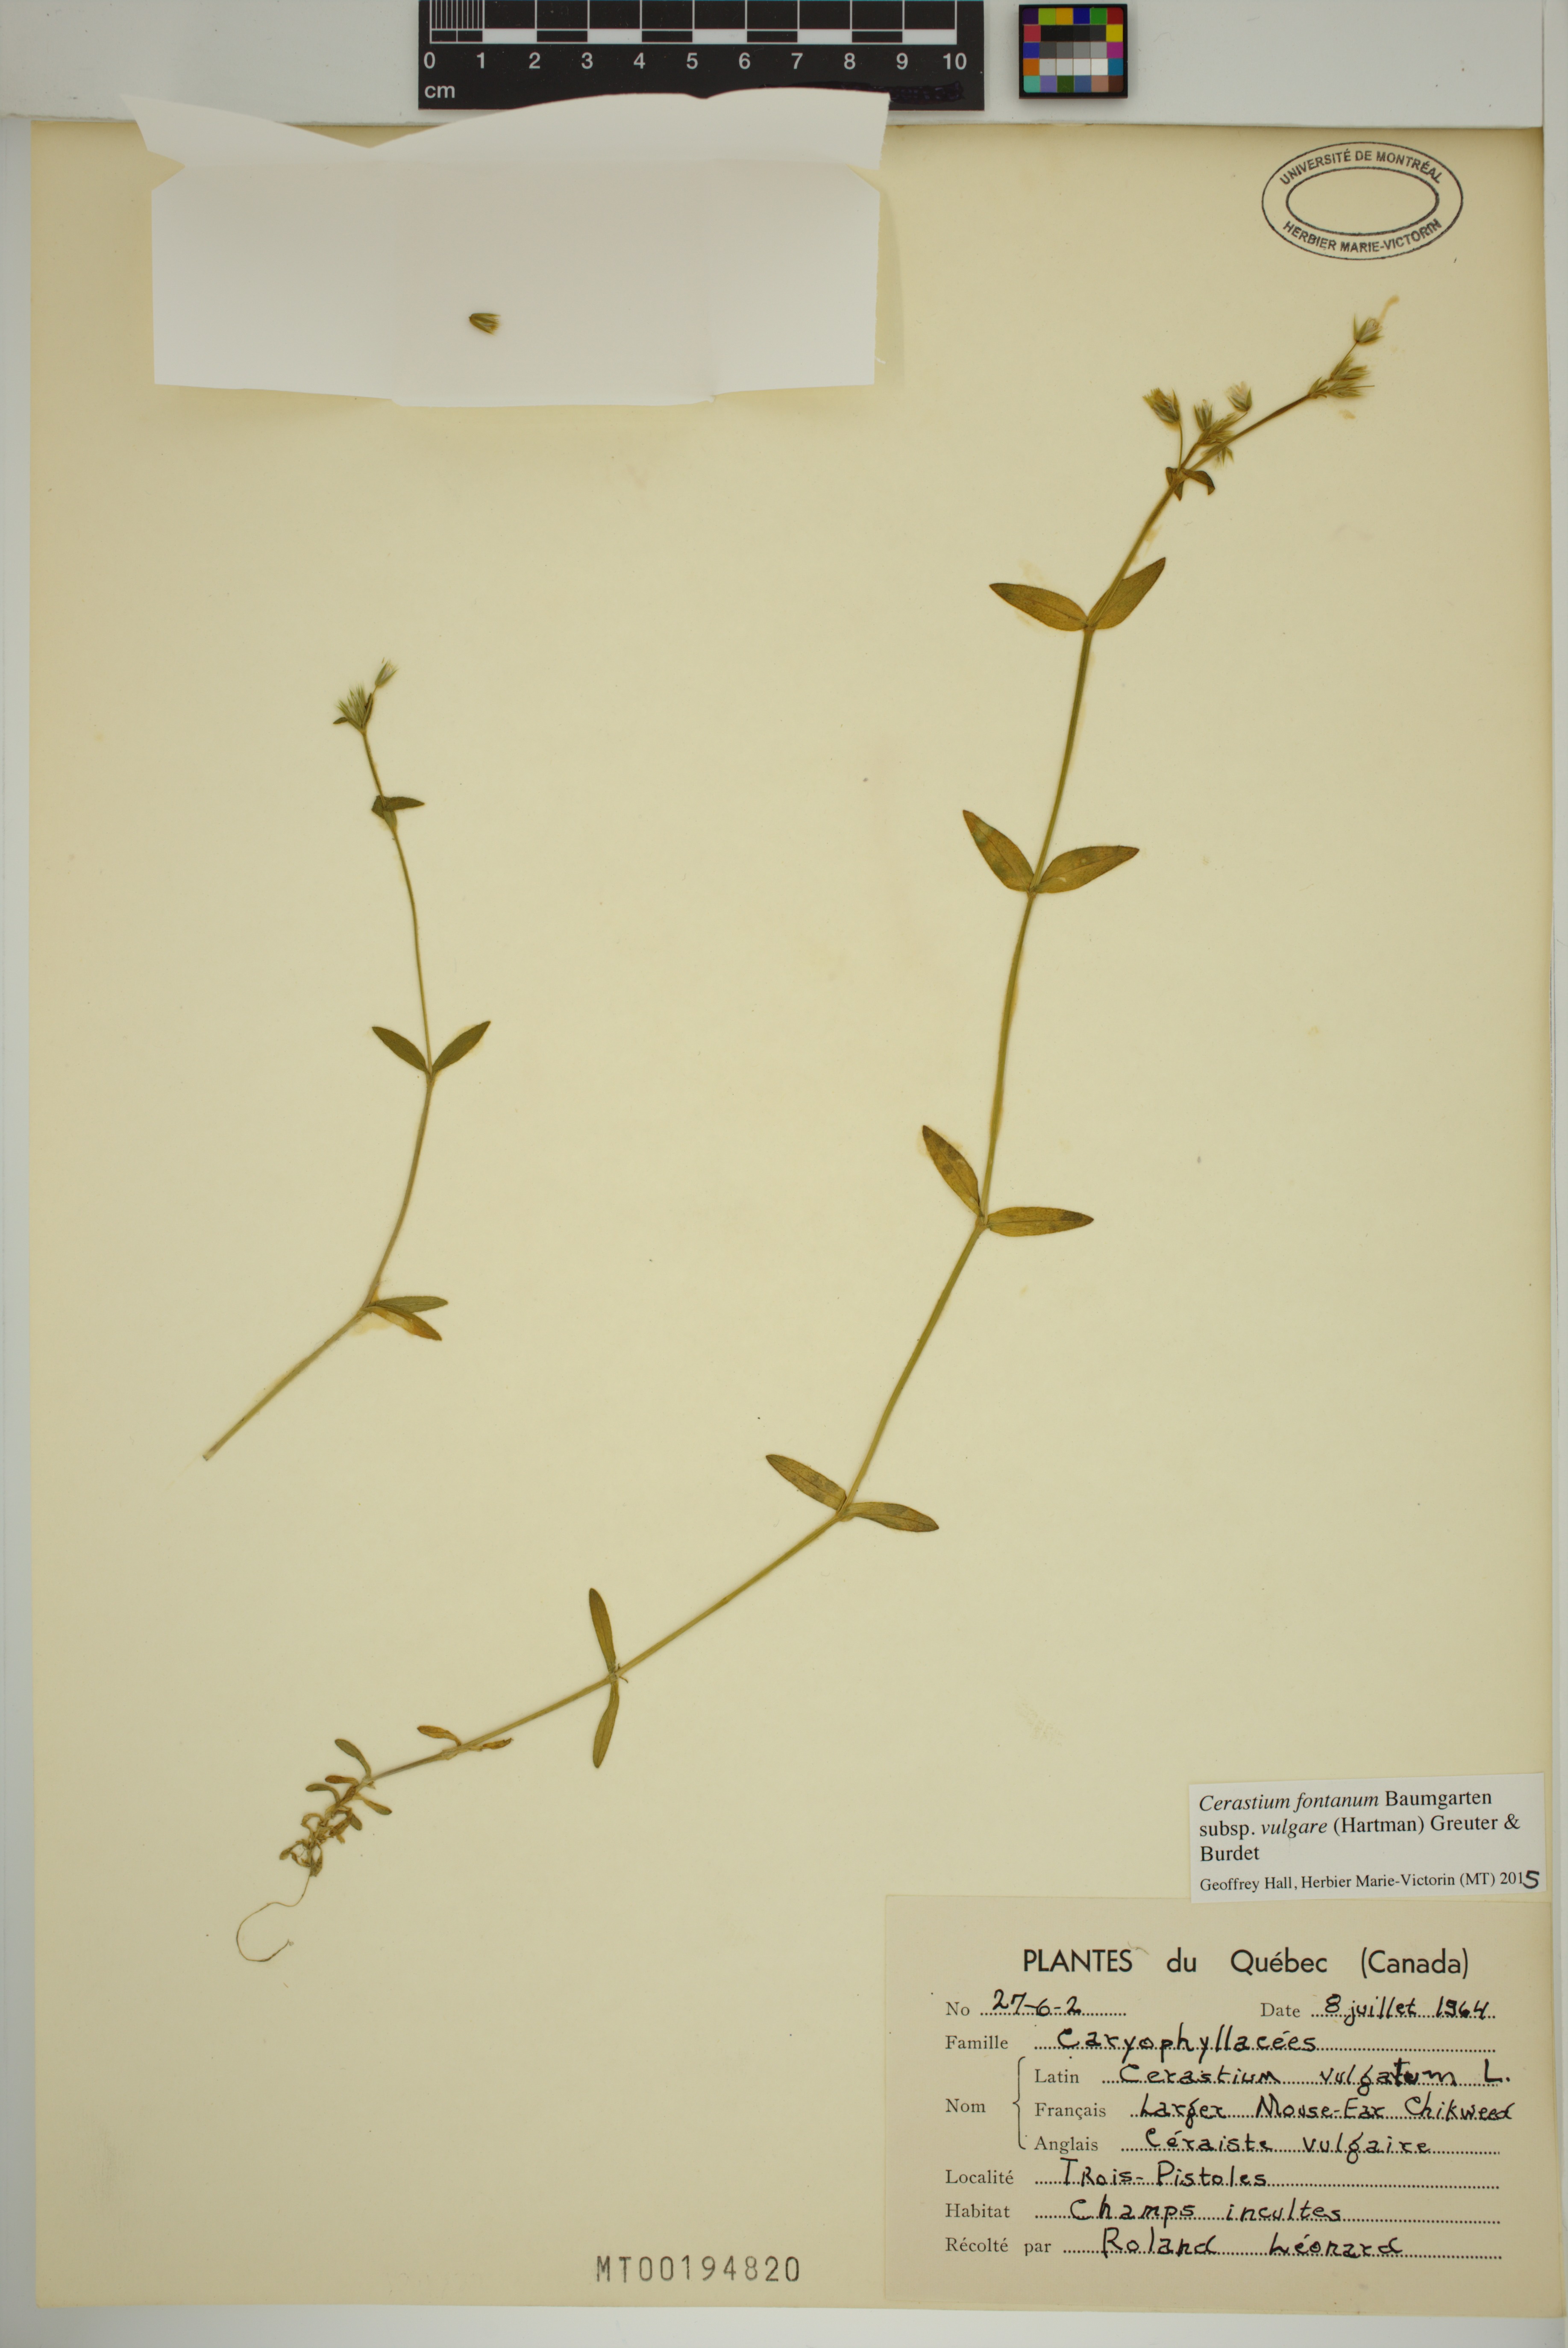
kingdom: Plantae
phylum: Tracheophyta
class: Magnoliopsida
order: Caryophyllales
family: Caryophyllaceae
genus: Cerastium
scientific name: Cerastium holosteoides
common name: Big chickweed
